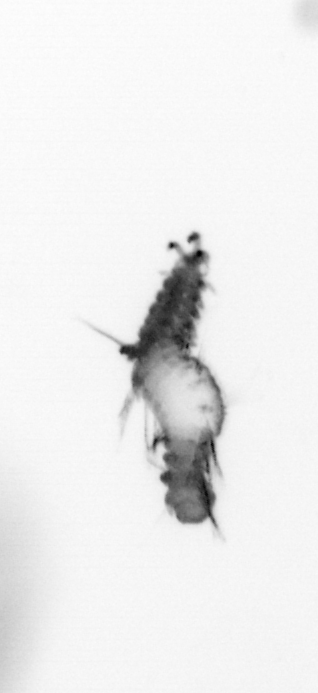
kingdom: Animalia
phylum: Annelida
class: Polychaeta
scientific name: Polychaeta
